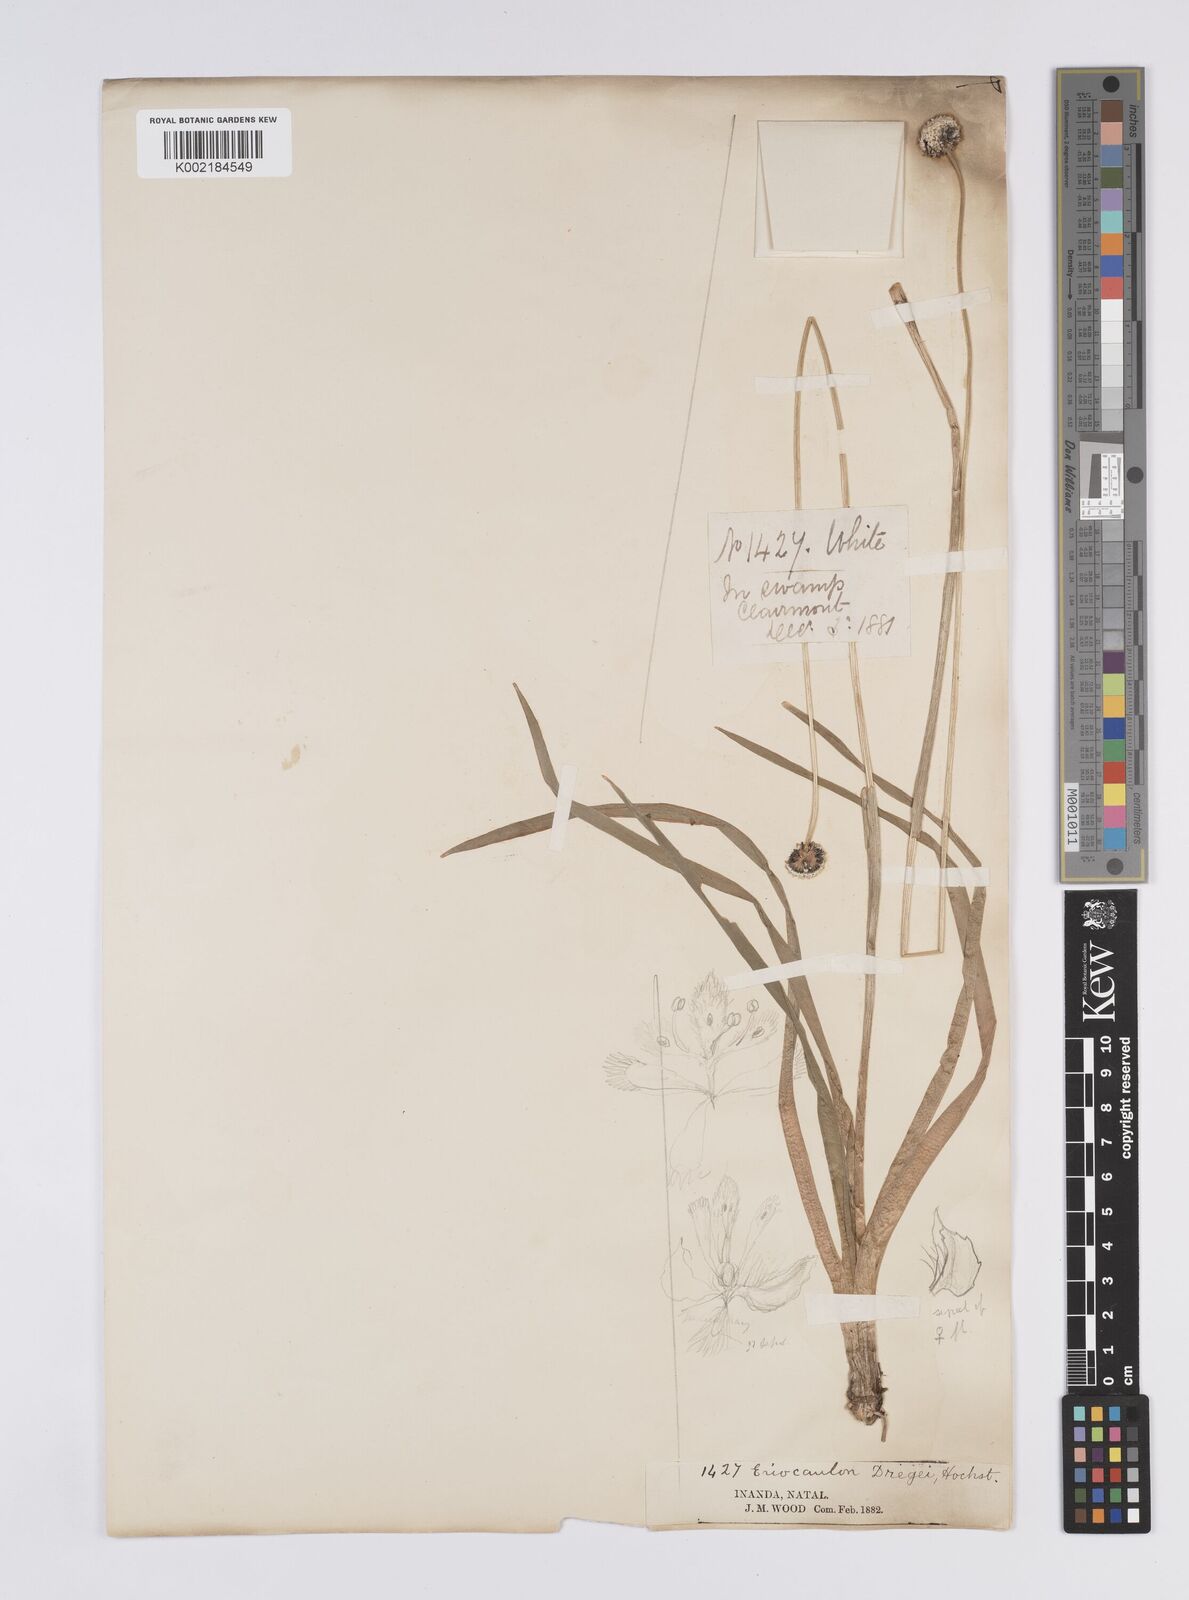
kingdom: Plantae
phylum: Tracheophyta
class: Liliopsida
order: Poales
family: Eriocaulaceae
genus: Eriocaulon
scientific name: Eriocaulon dregei
